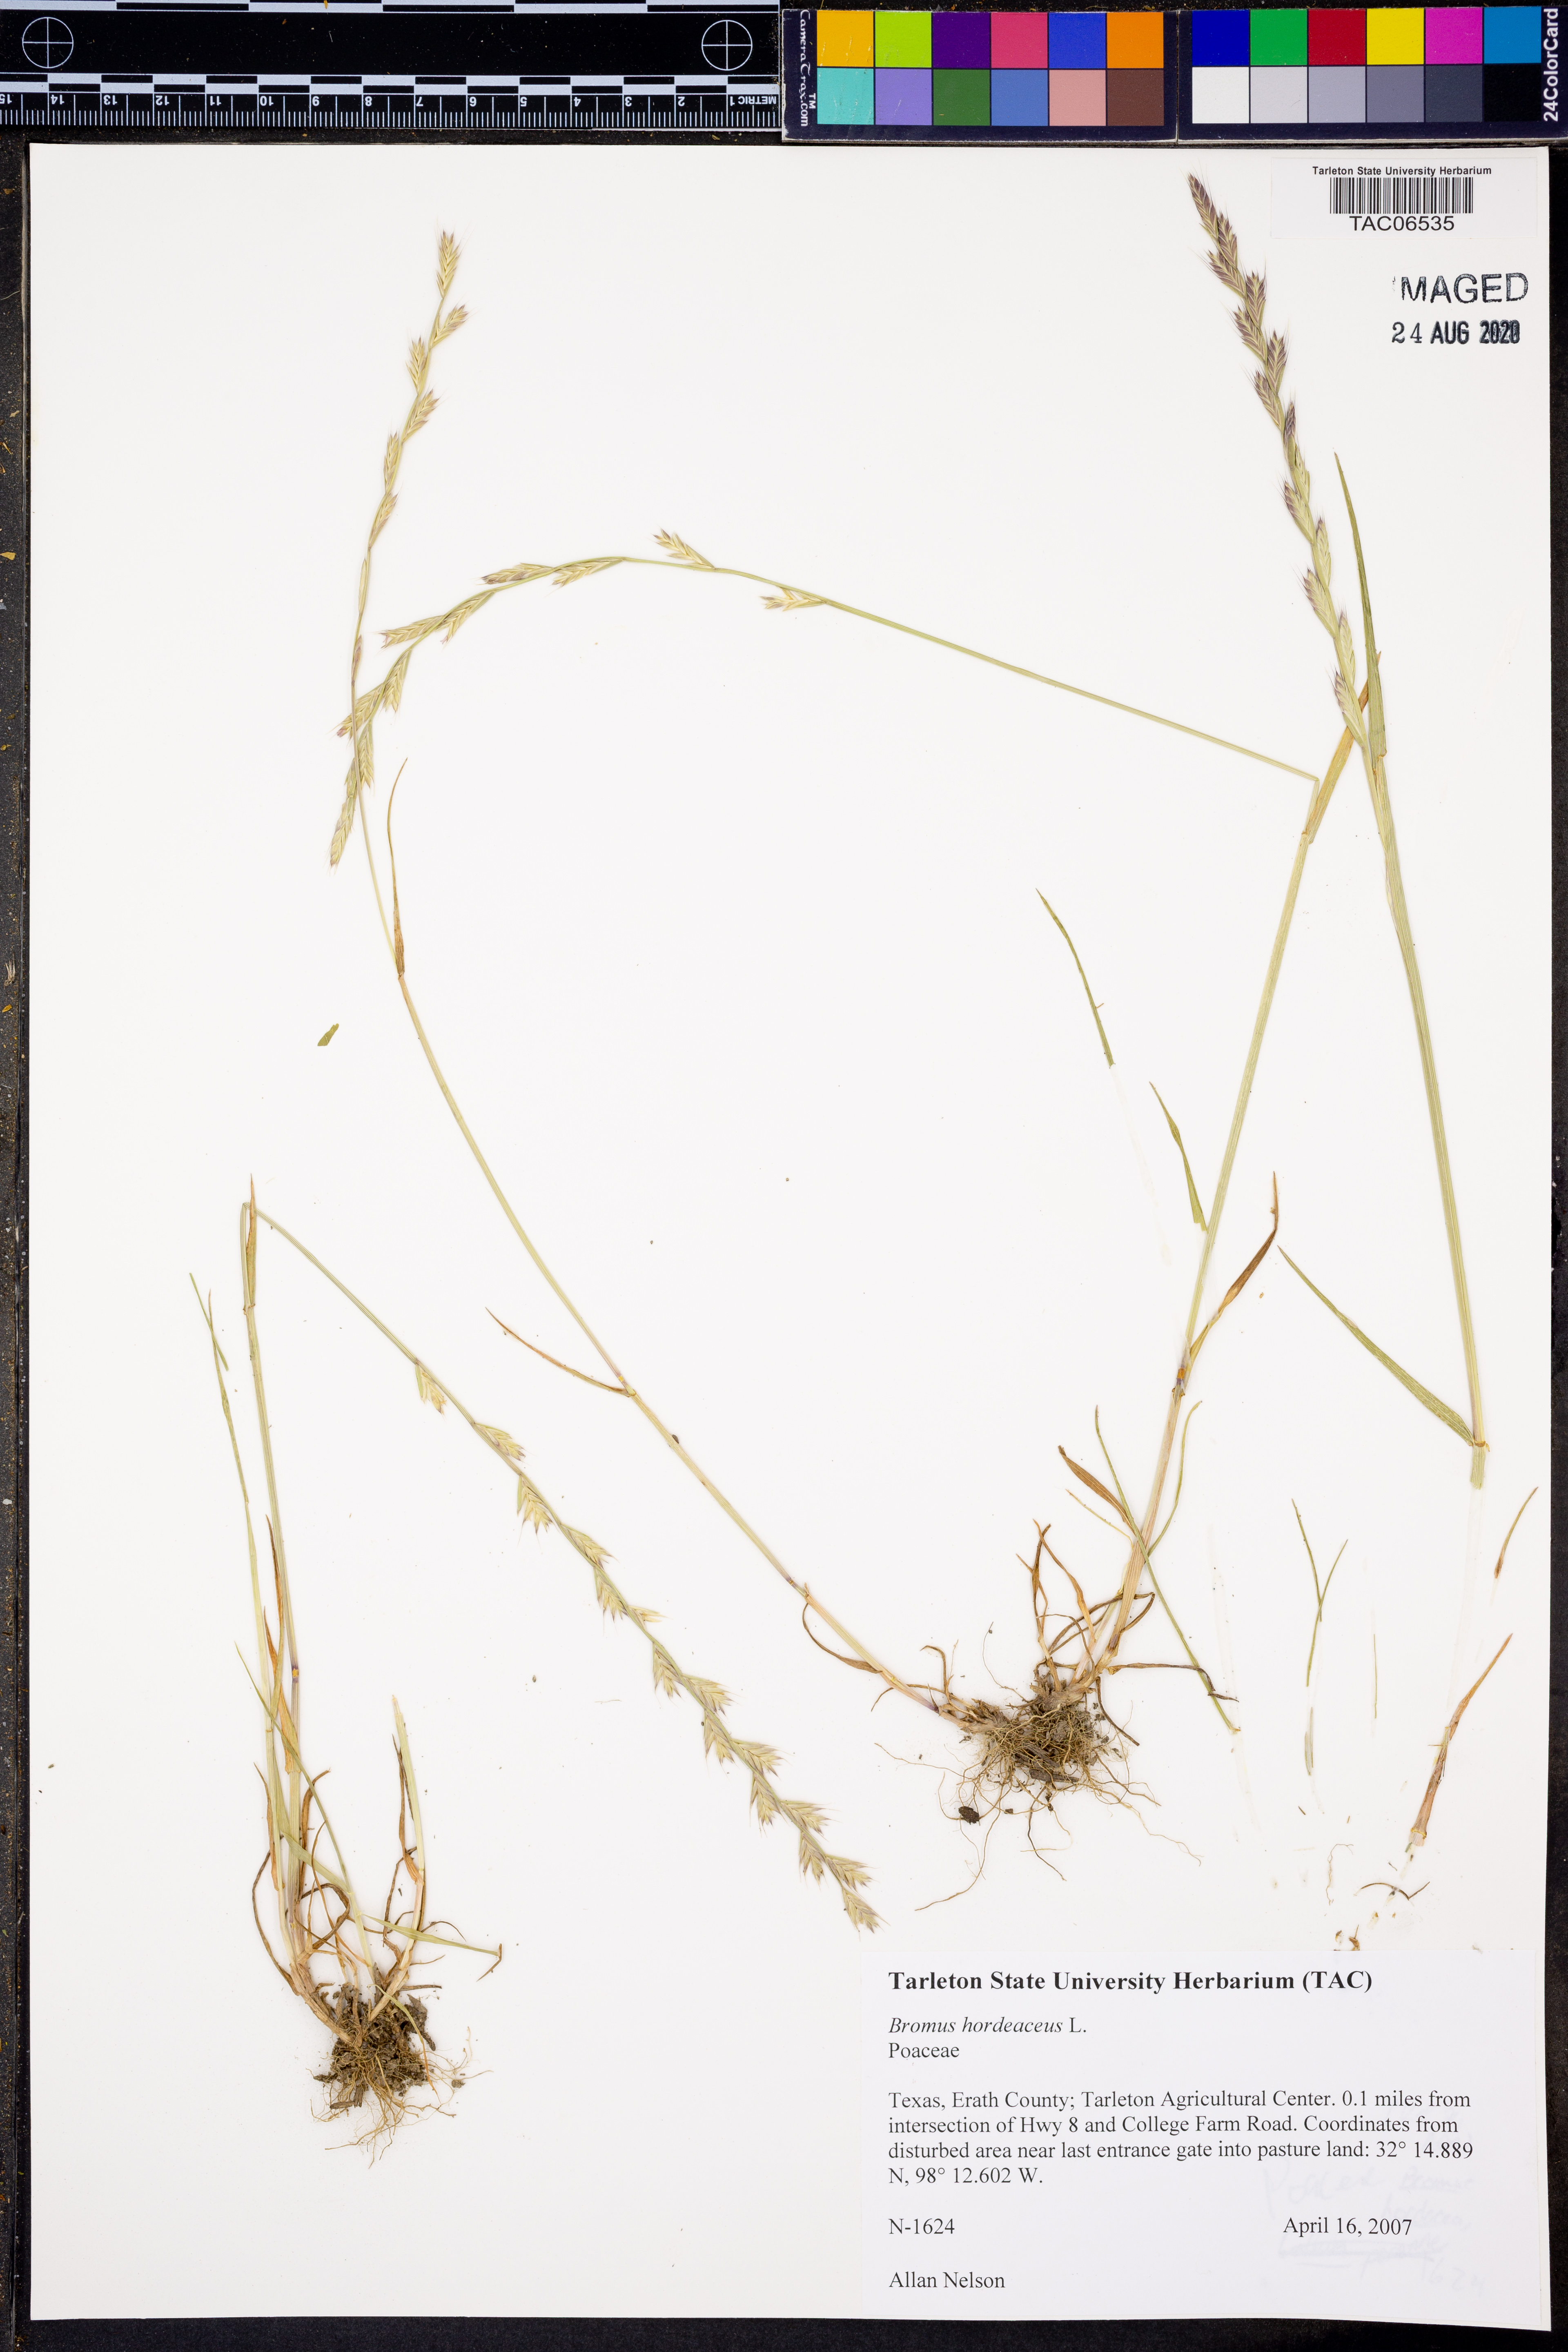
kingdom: Plantae
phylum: Tracheophyta
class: Liliopsida
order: Poales
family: Poaceae
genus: Bromus
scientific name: Bromus hordeaceus
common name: Soft brome
